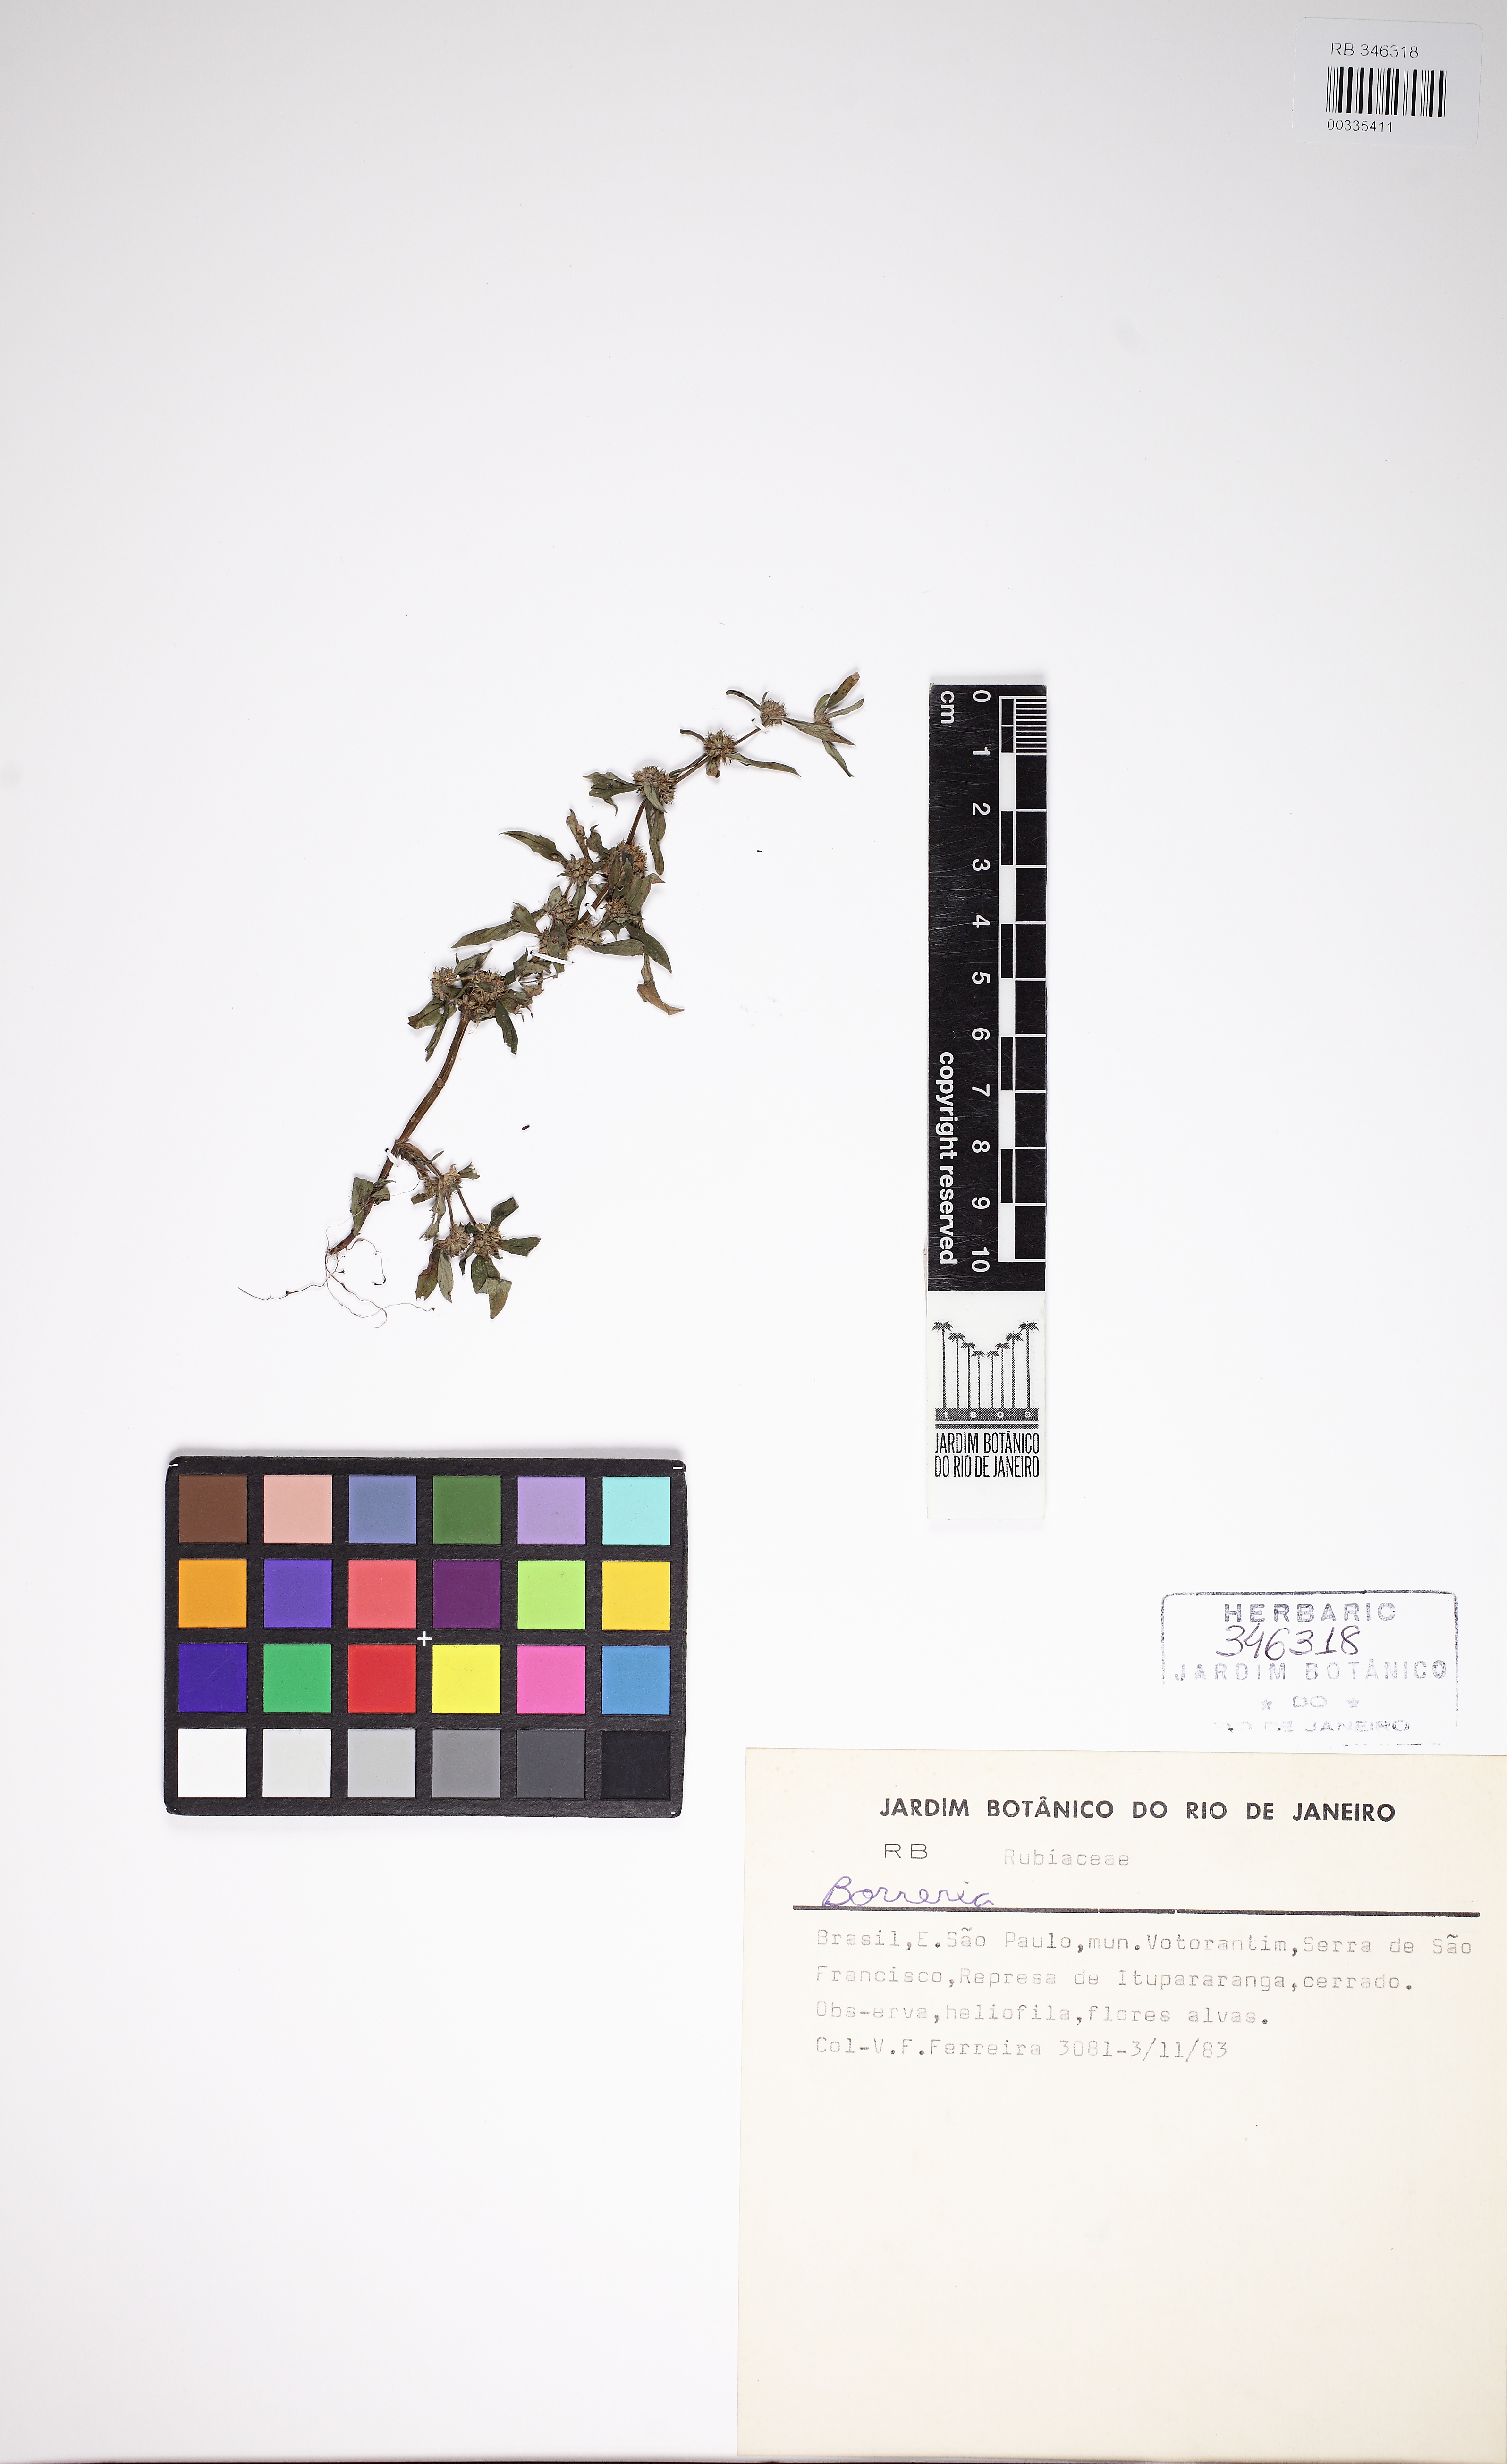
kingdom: Plantae
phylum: Tracheophyta
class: Magnoliopsida
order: Gentianales
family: Rubiaceae
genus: Spermacoce
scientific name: Spermacoce prostrata
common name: Prostrate false buttonweed
